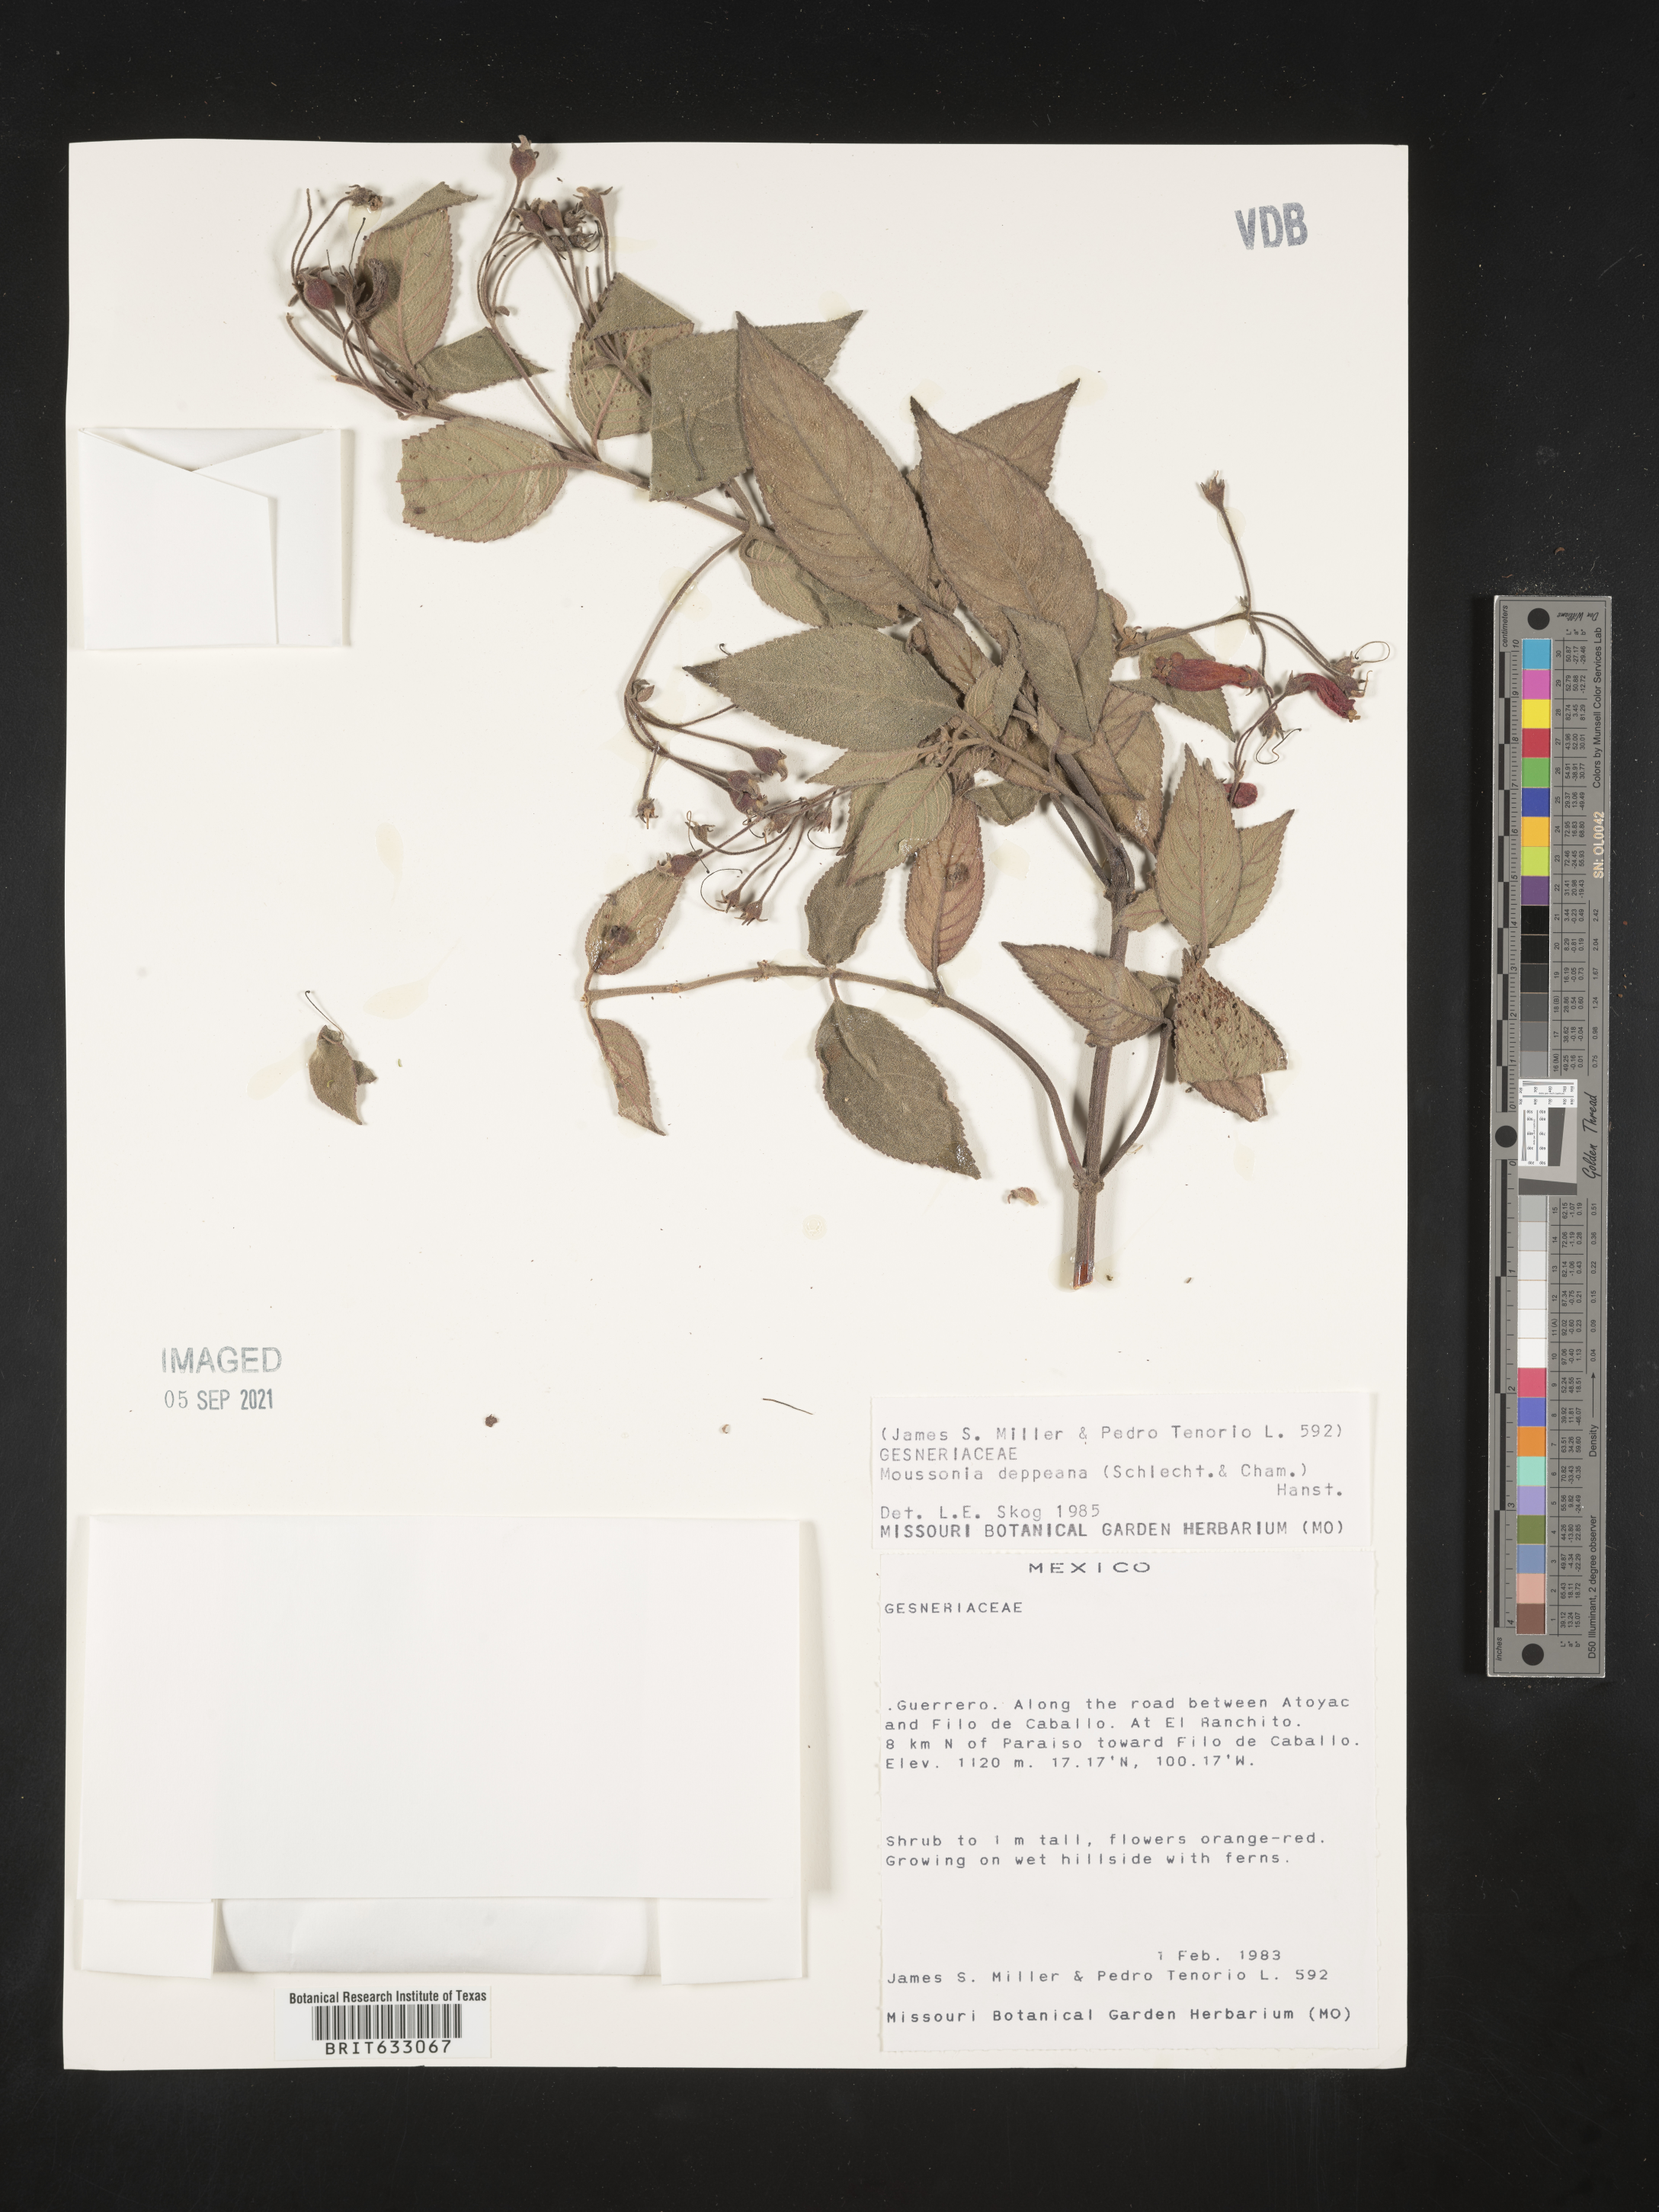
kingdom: Plantae
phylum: Tracheophyta
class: Magnoliopsida
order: Lamiales
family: Gesneriaceae
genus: Moussonia
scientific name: Moussonia deppeana
